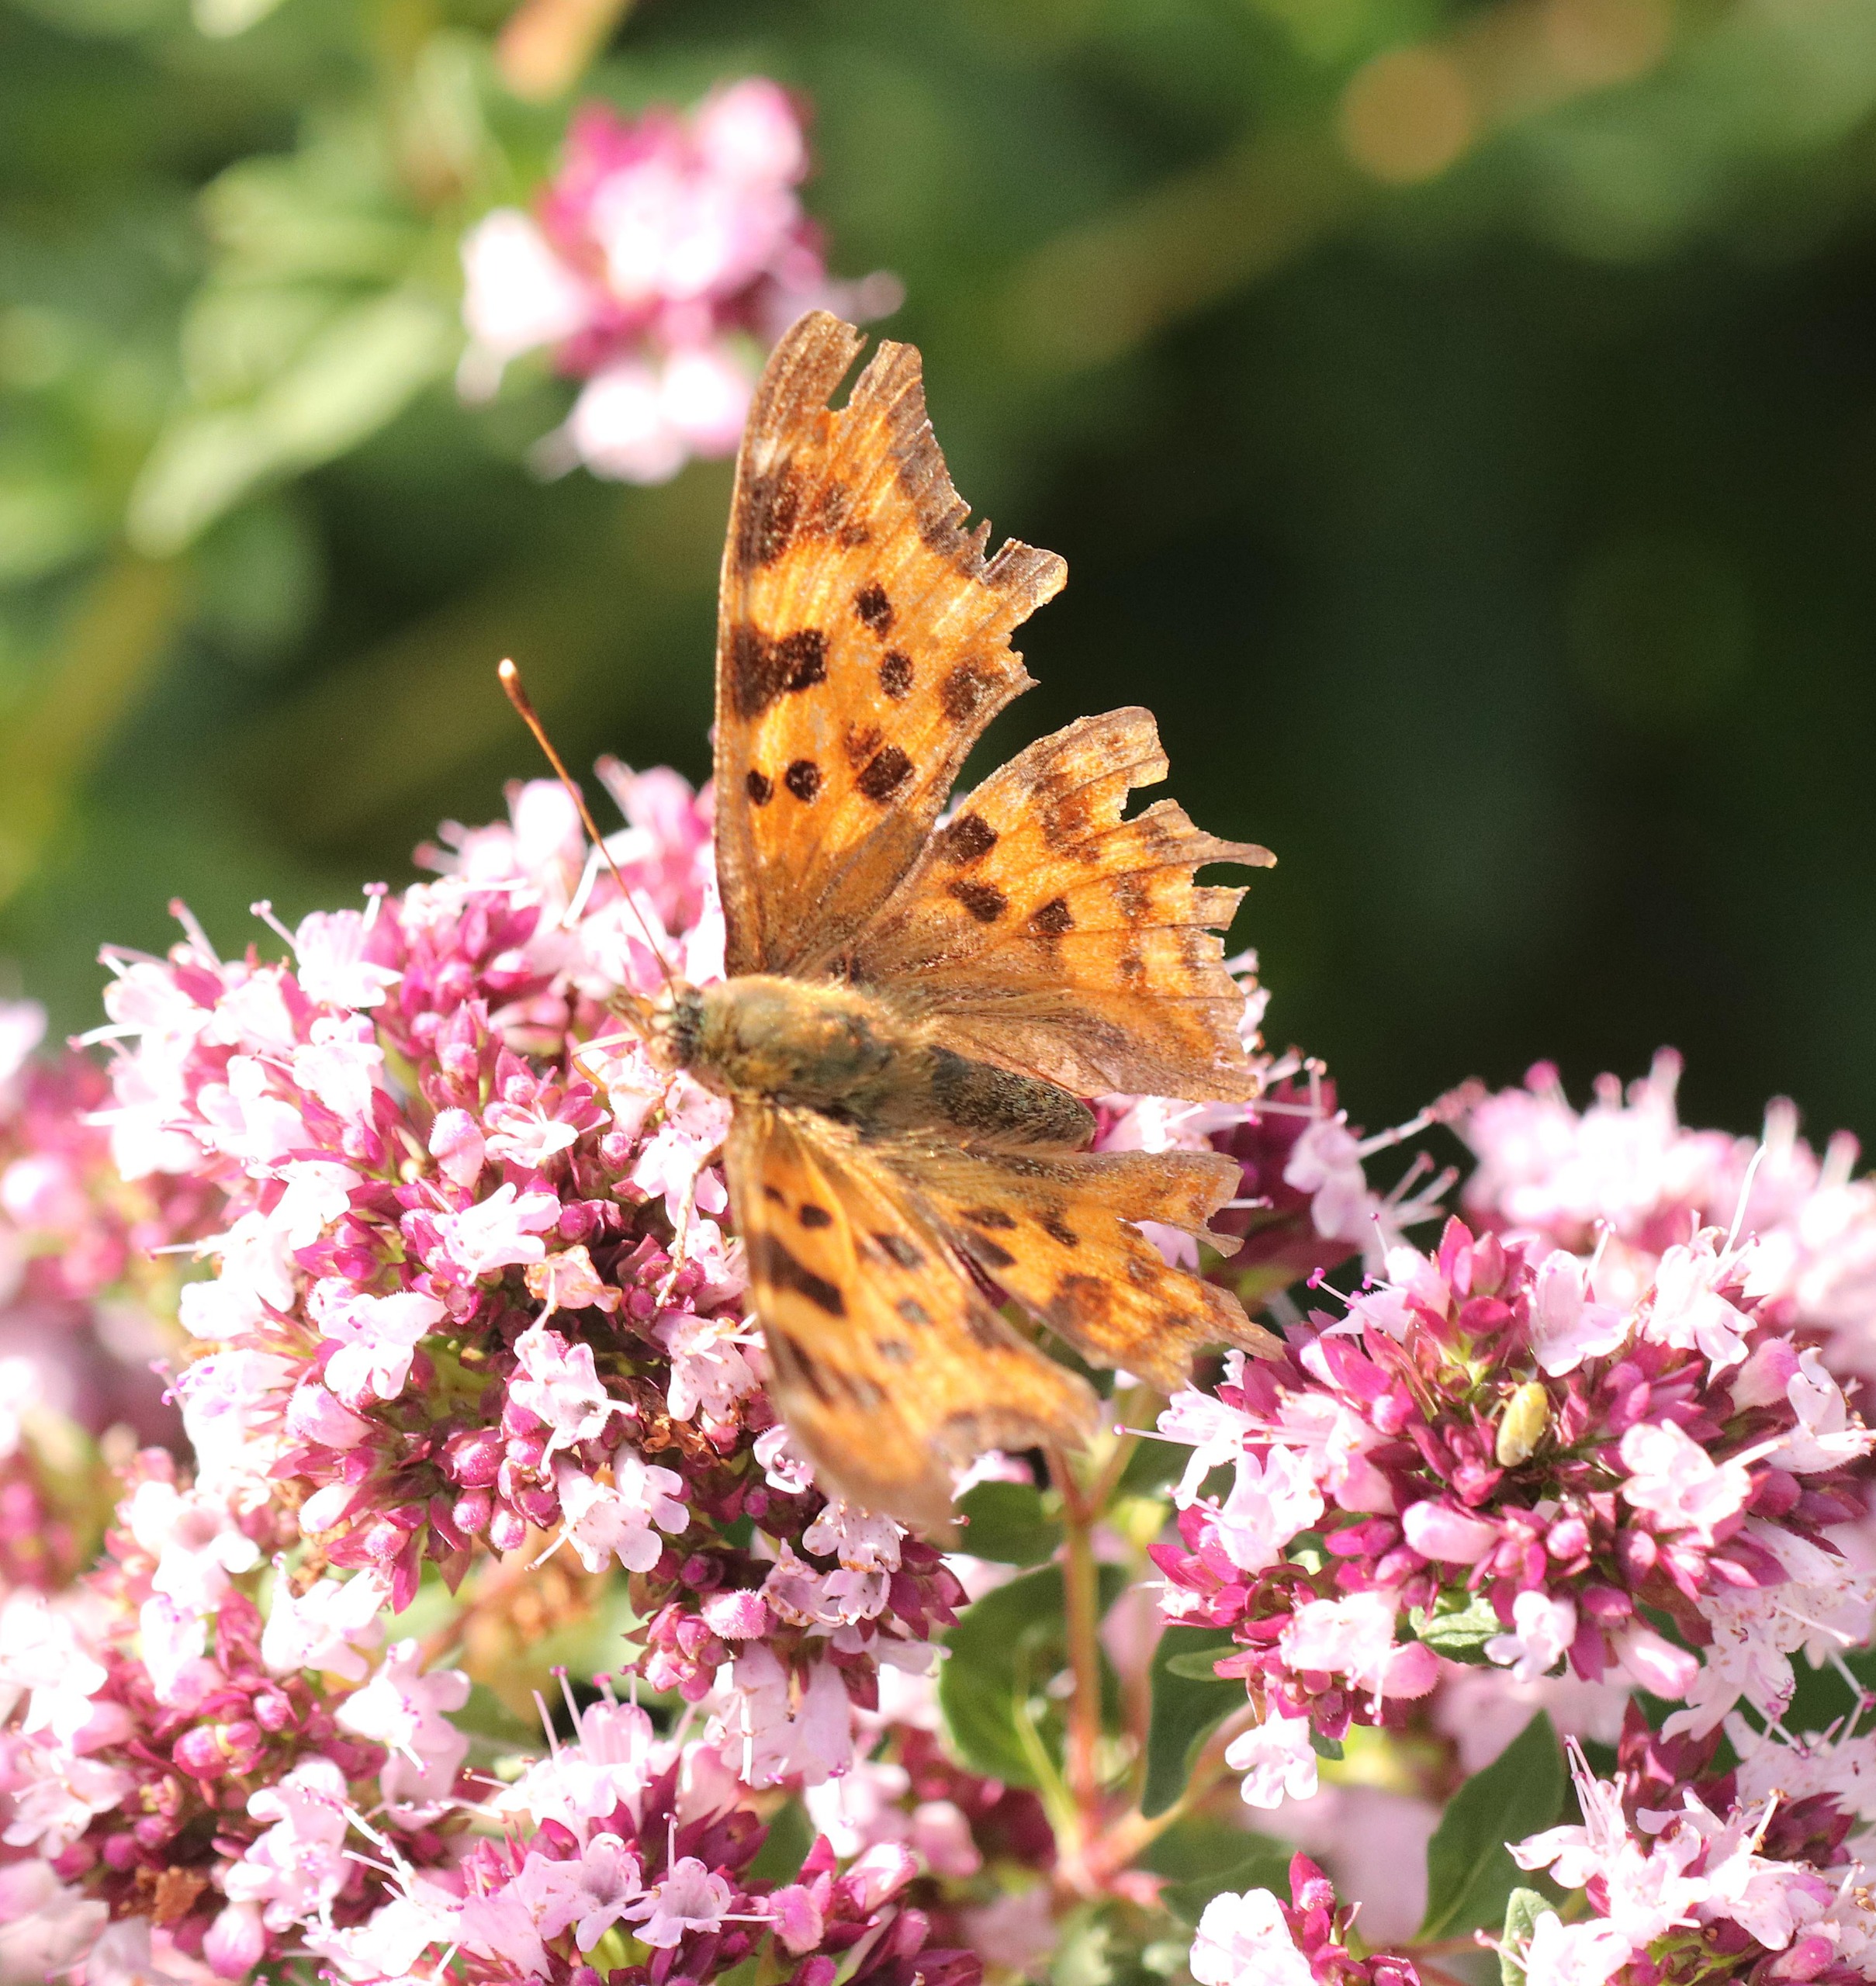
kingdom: Animalia
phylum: Arthropoda
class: Insecta
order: Lepidoptera
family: Nymphalidae
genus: Polygonia
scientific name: Polygonia c-album
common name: Det hvide C
